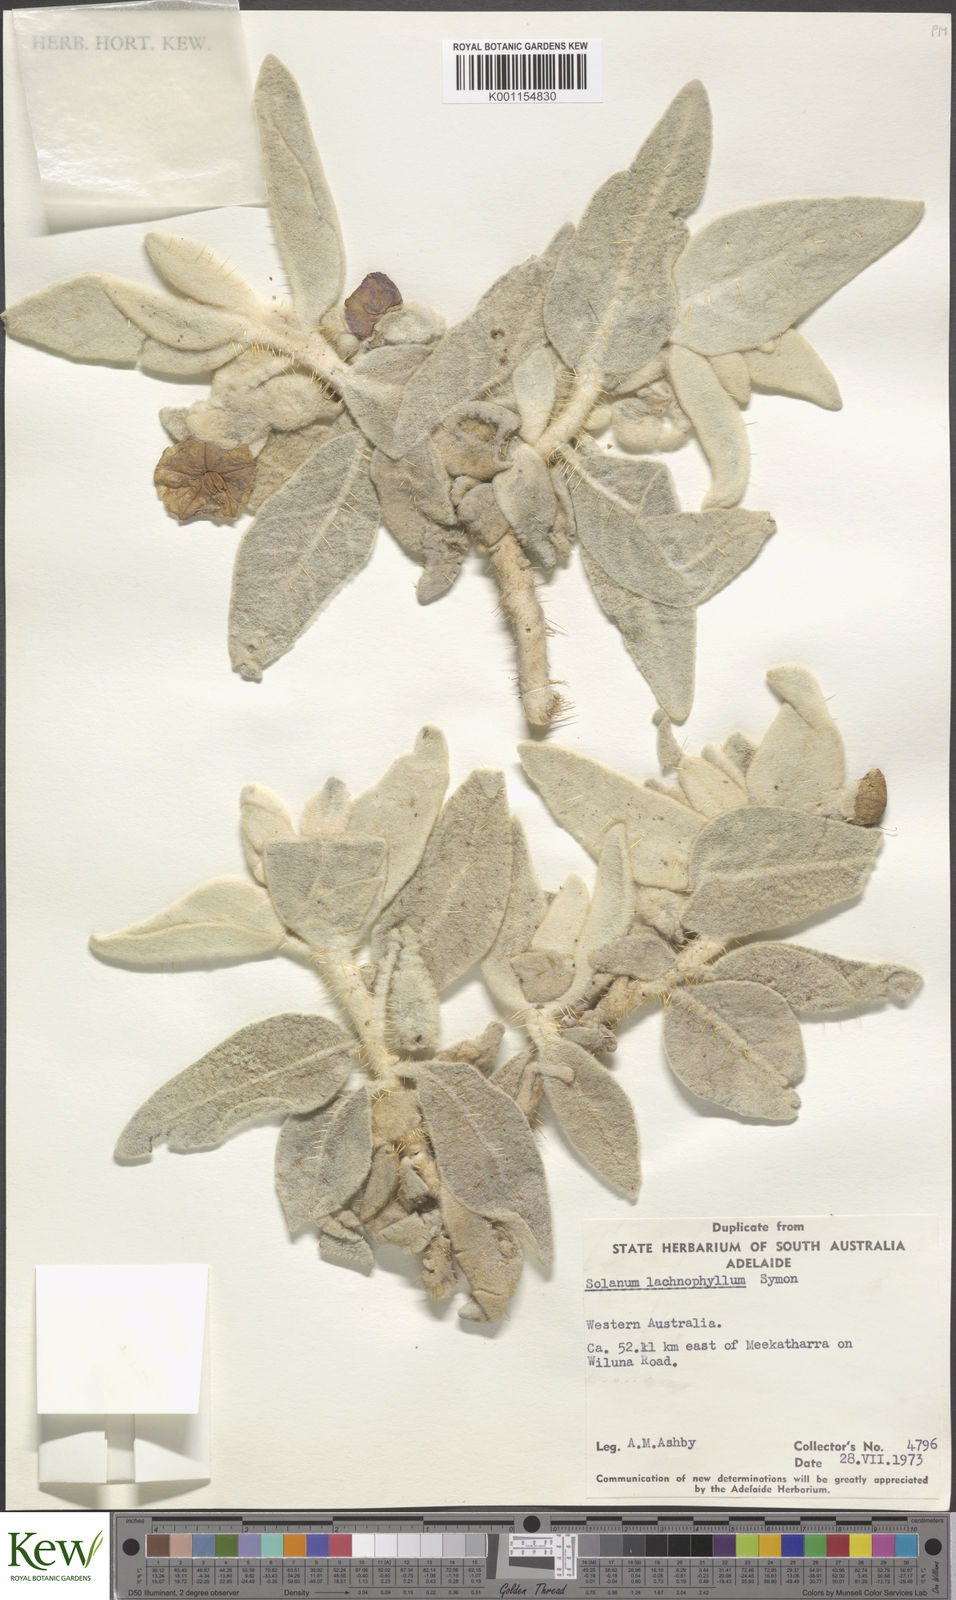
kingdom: Plantae
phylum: Tracheophyta
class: Magnoliopsida
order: Solanales
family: Solanaceae
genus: Solanum
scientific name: Solanum lachnophyllum
